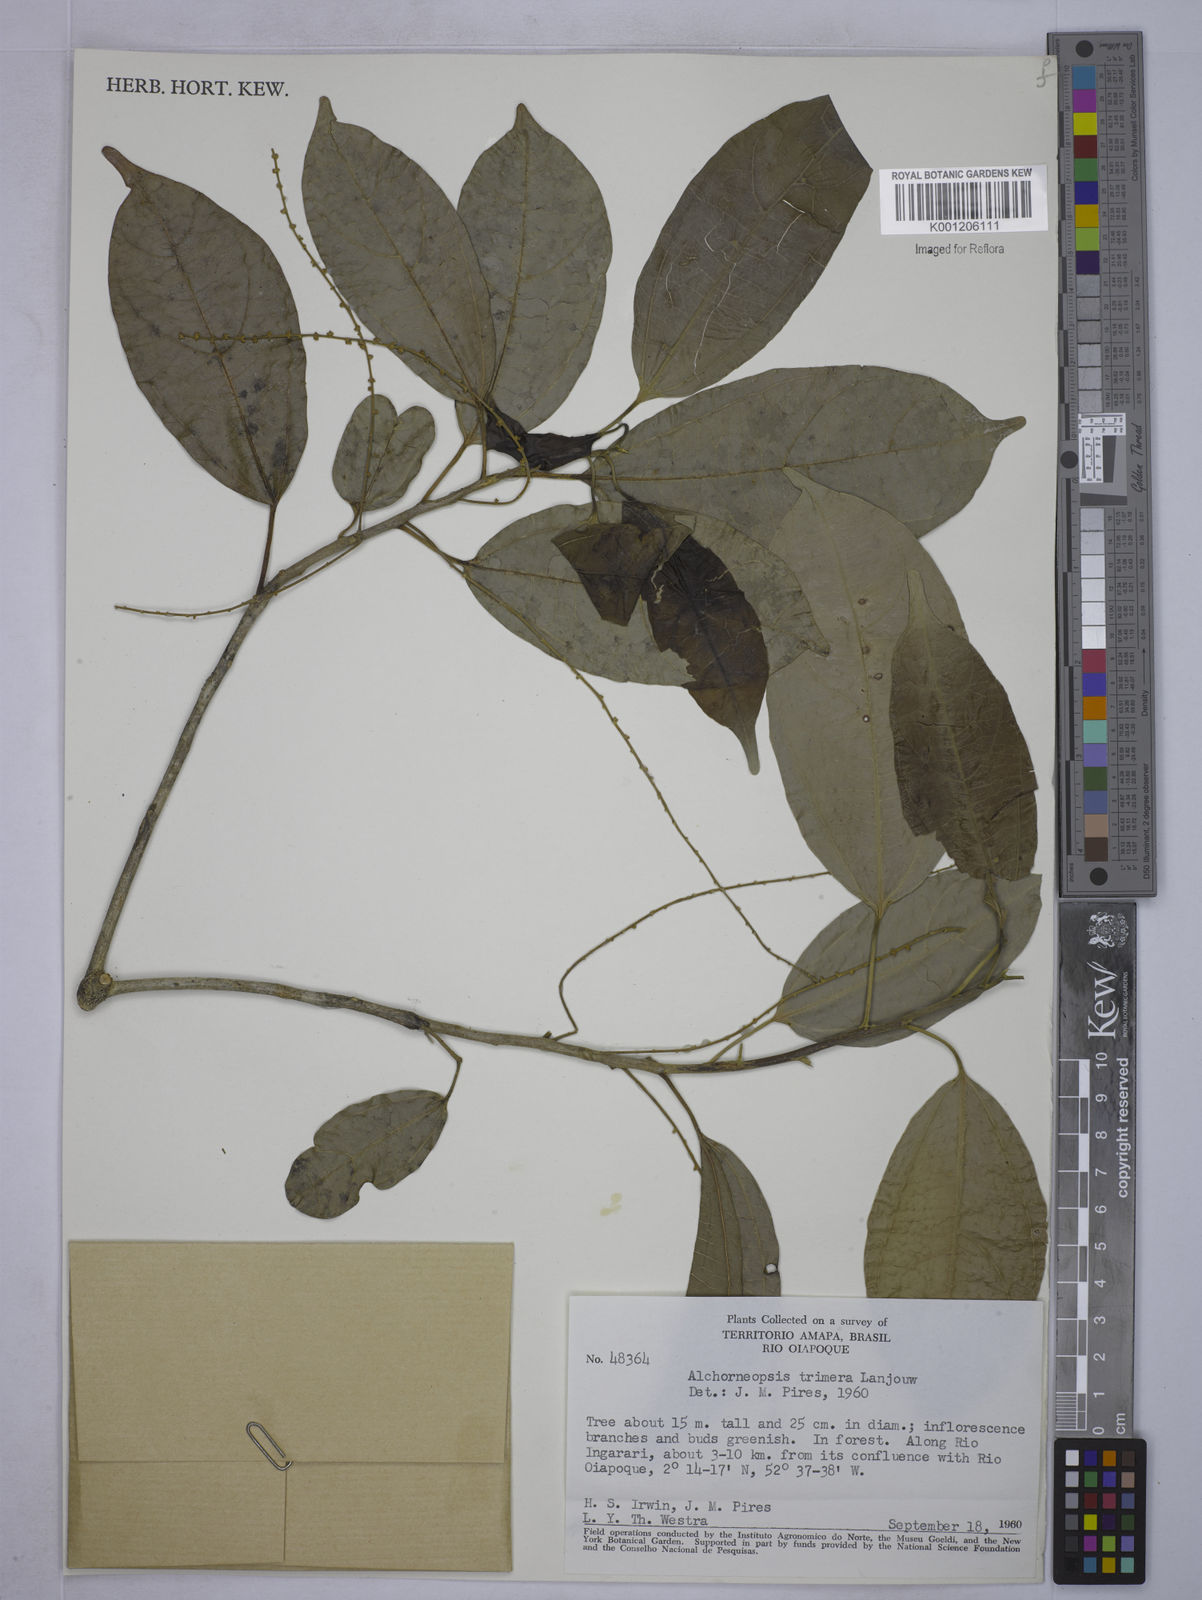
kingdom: Plantae
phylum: Tracheophyta
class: Magnoliopsida
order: Malpighiales
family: Euphorbiaceae
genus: Alchorneopsis
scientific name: Alchorneopsis
